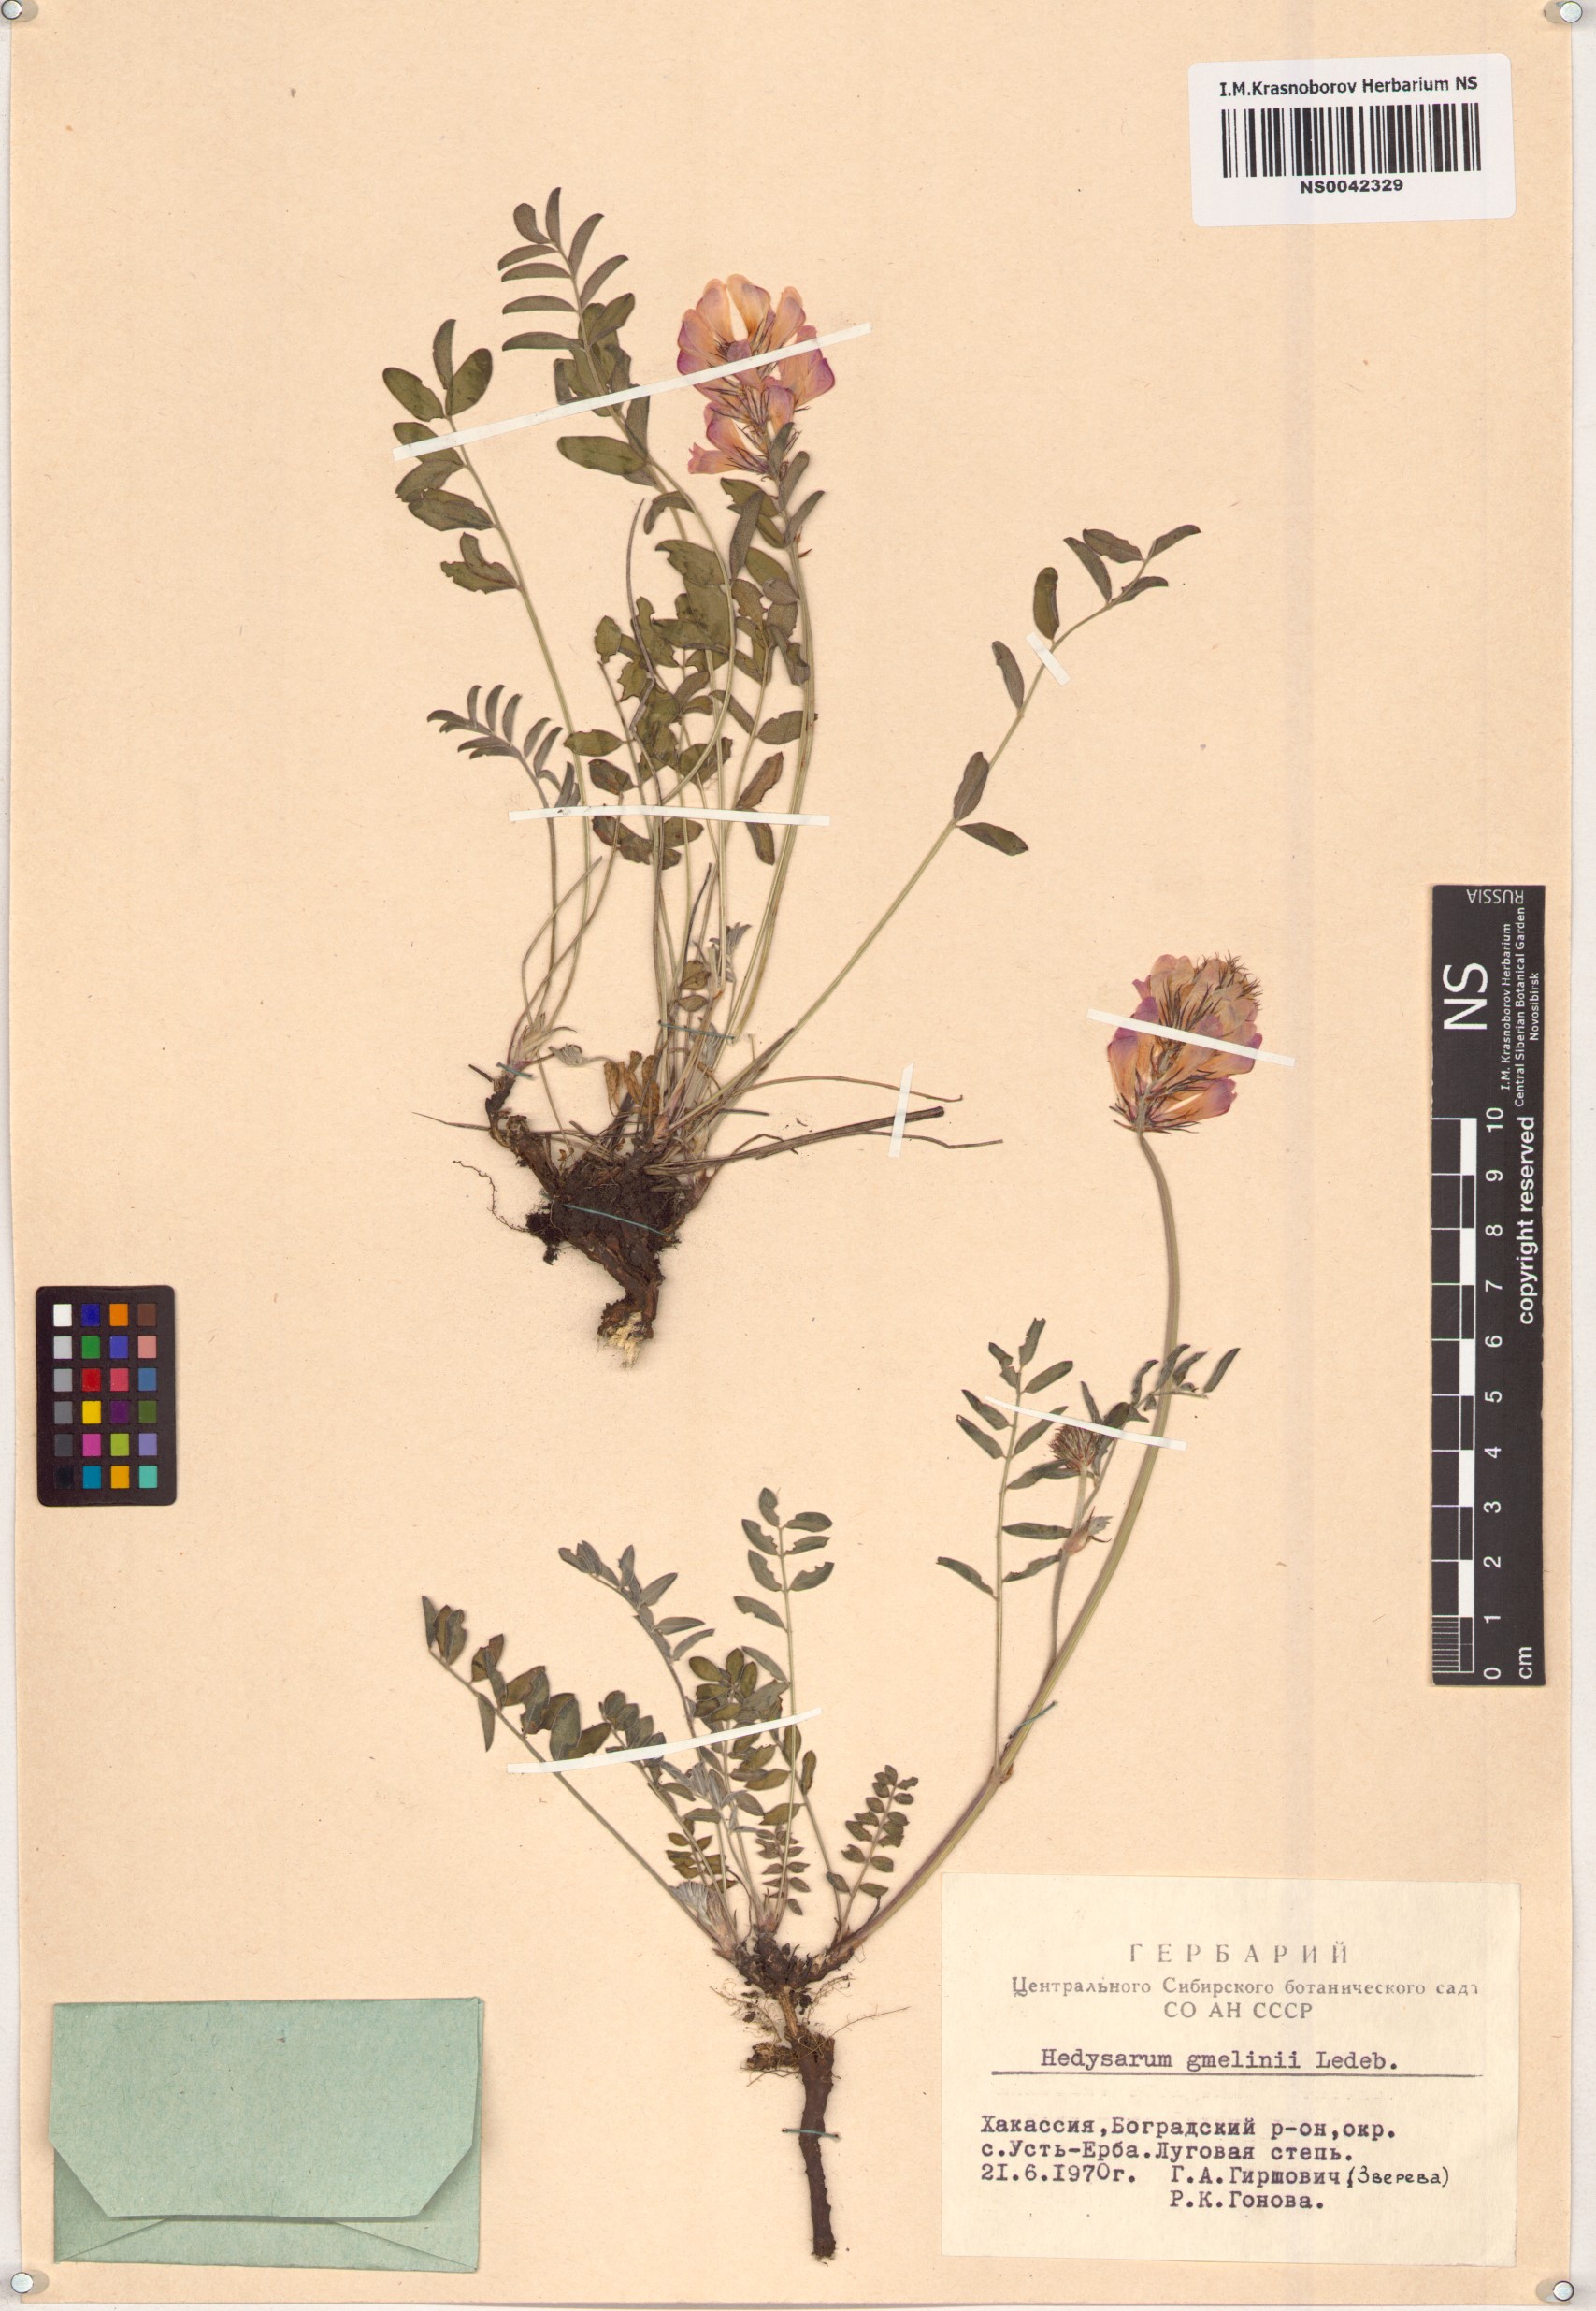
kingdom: Plantae
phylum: Tracheophyta
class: Magnoliopsida
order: Fabales
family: Fabaceae
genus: Hedysarum
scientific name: Hedysarum gmelinii
